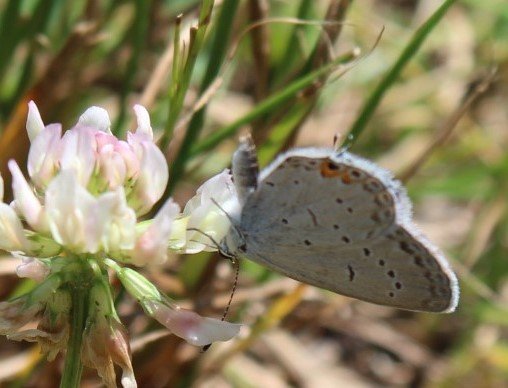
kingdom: Animalia
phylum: Arthropoda
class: Insecta
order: Lepidoptera
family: Lycaenidae
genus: Elkalyce
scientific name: Elkalyce comyntas
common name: Eastern Tailed-Blue
